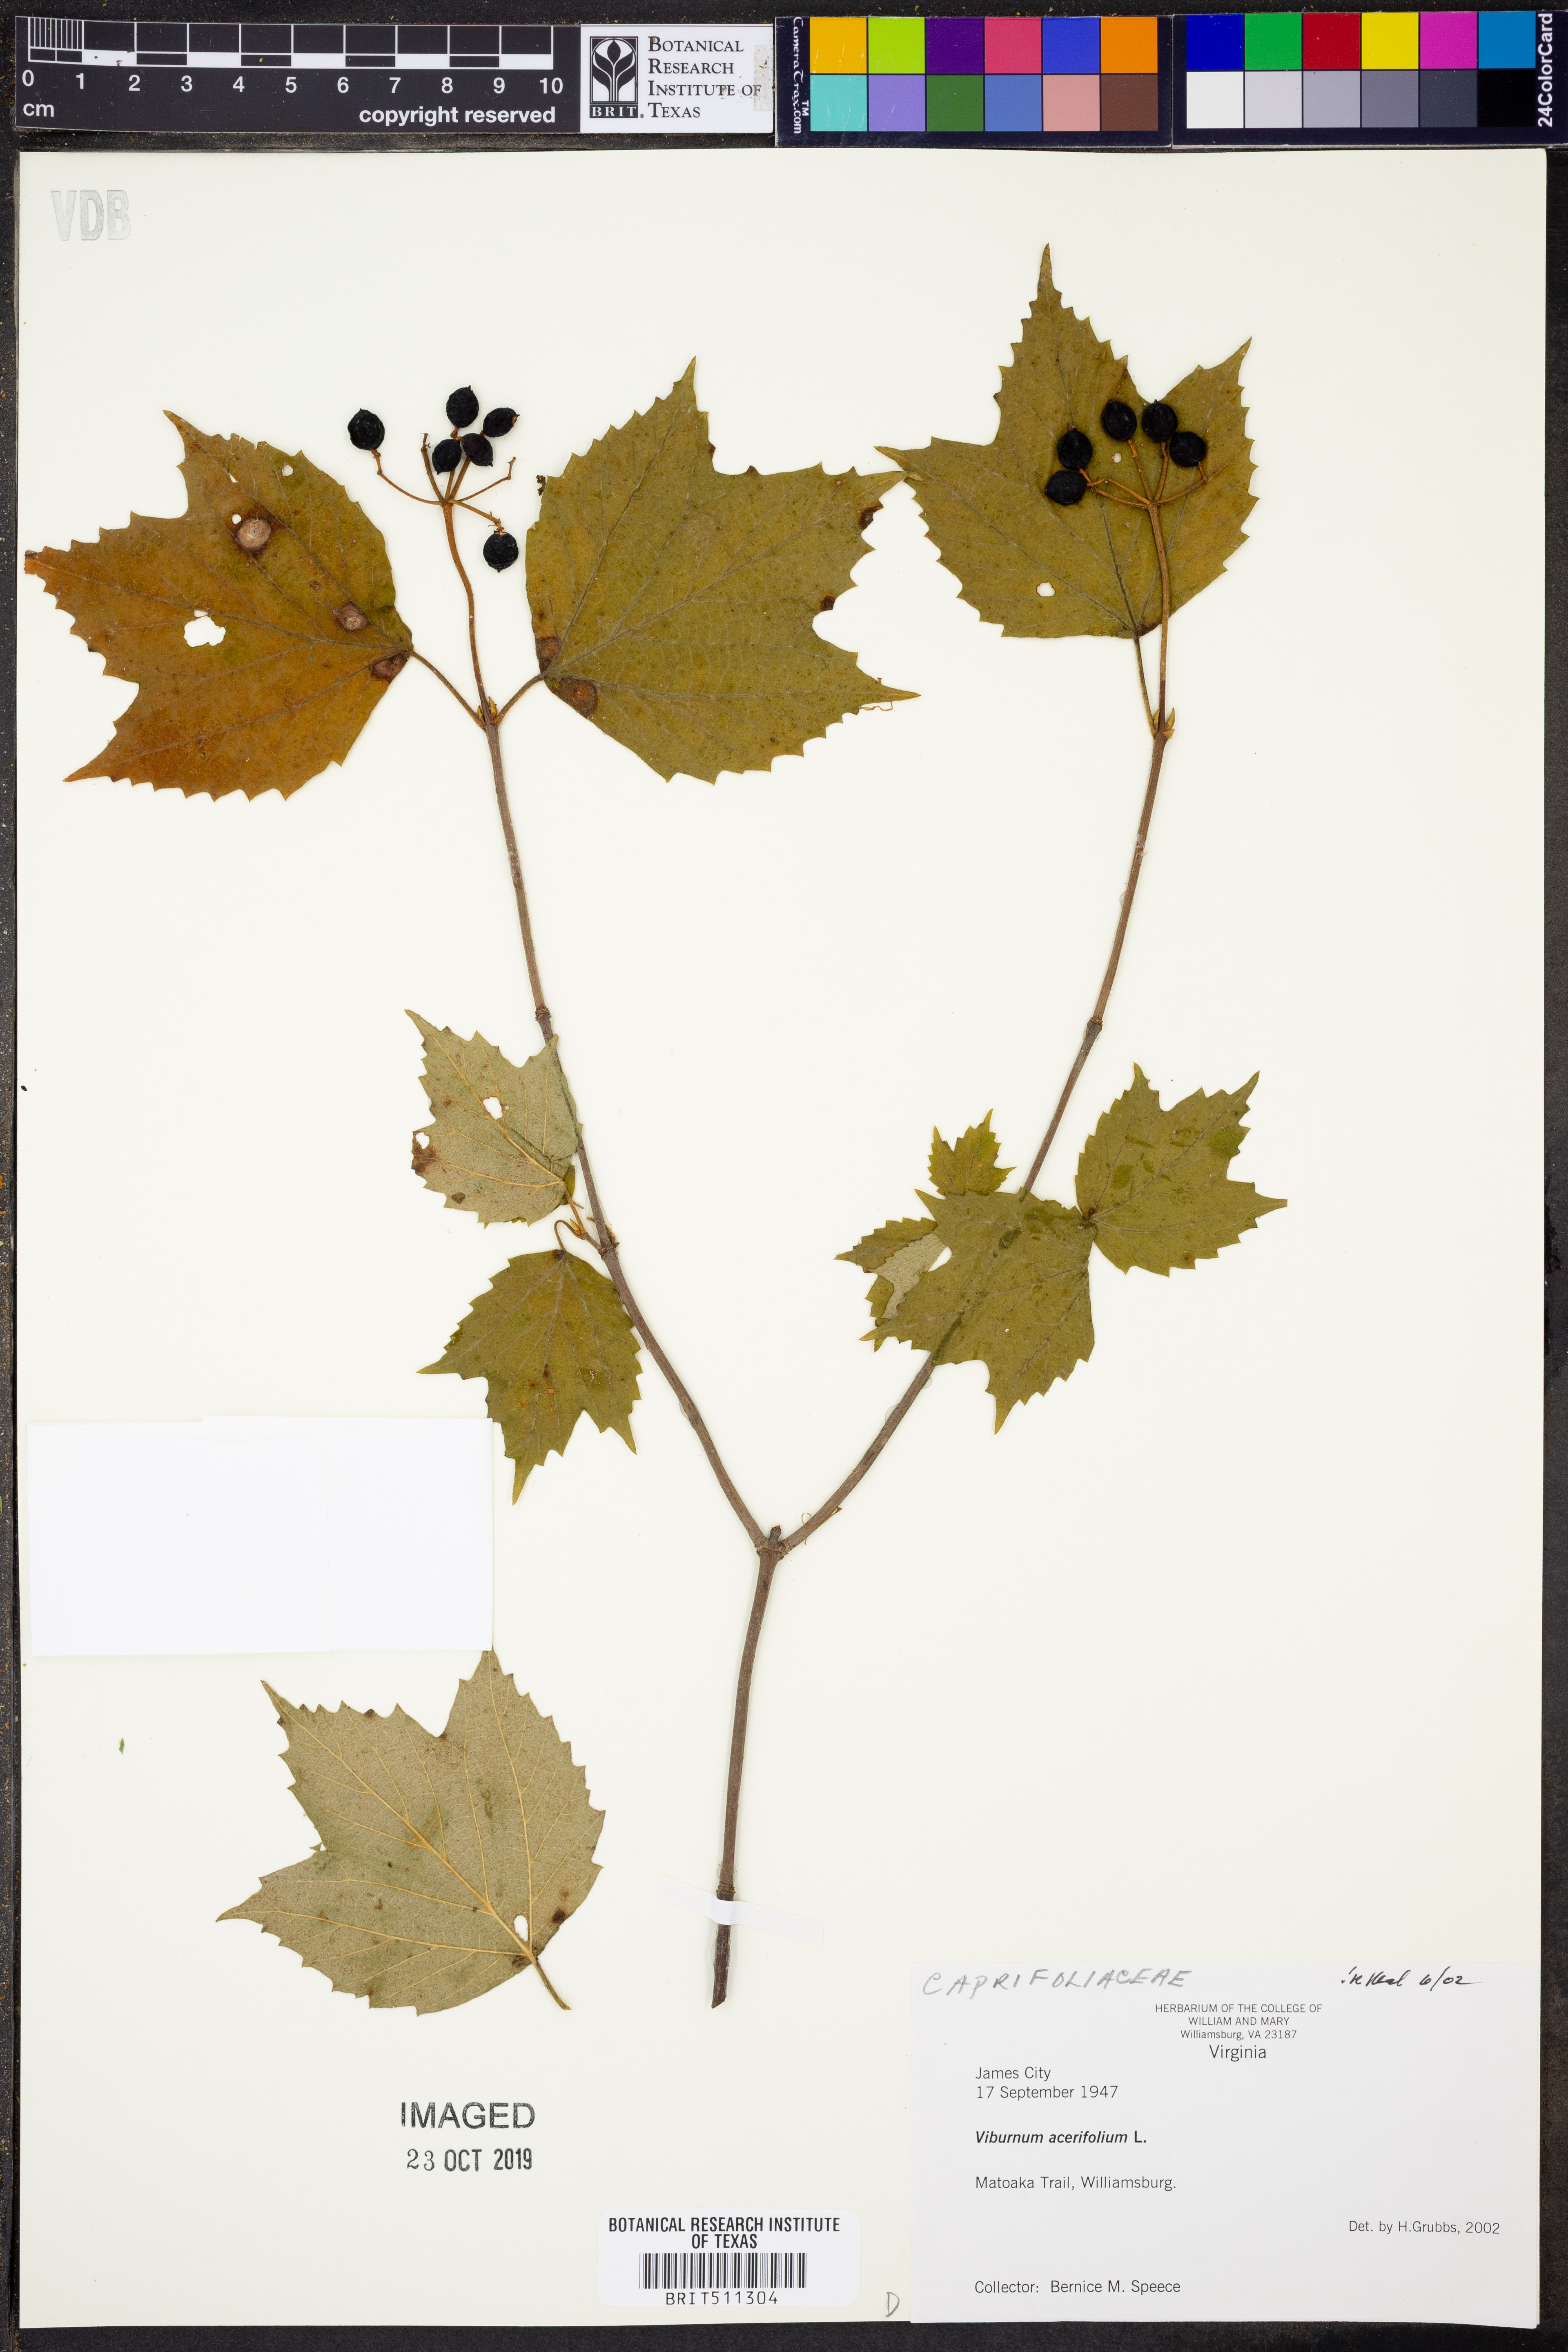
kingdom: Plantae
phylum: Tracheophyta
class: Magnoliopsida
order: Dipsacales
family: Viburnaceae
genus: Viburnum
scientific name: Viburnum acerifolium
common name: Dockmackie
